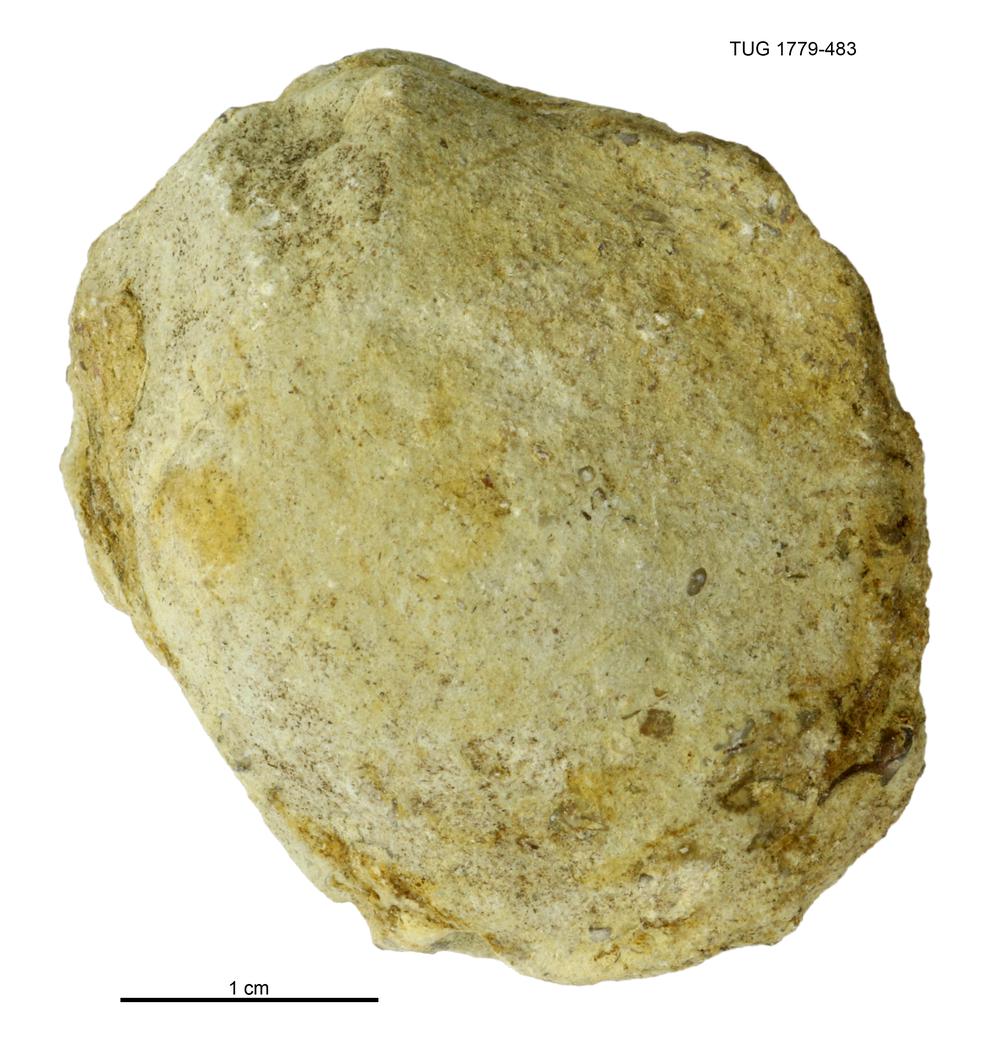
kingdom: Animalia
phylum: Mollusca
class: Bivalvia
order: Modiomorphida
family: Modiomorphidae
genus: Modiolopsis
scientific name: Modiolopsis
